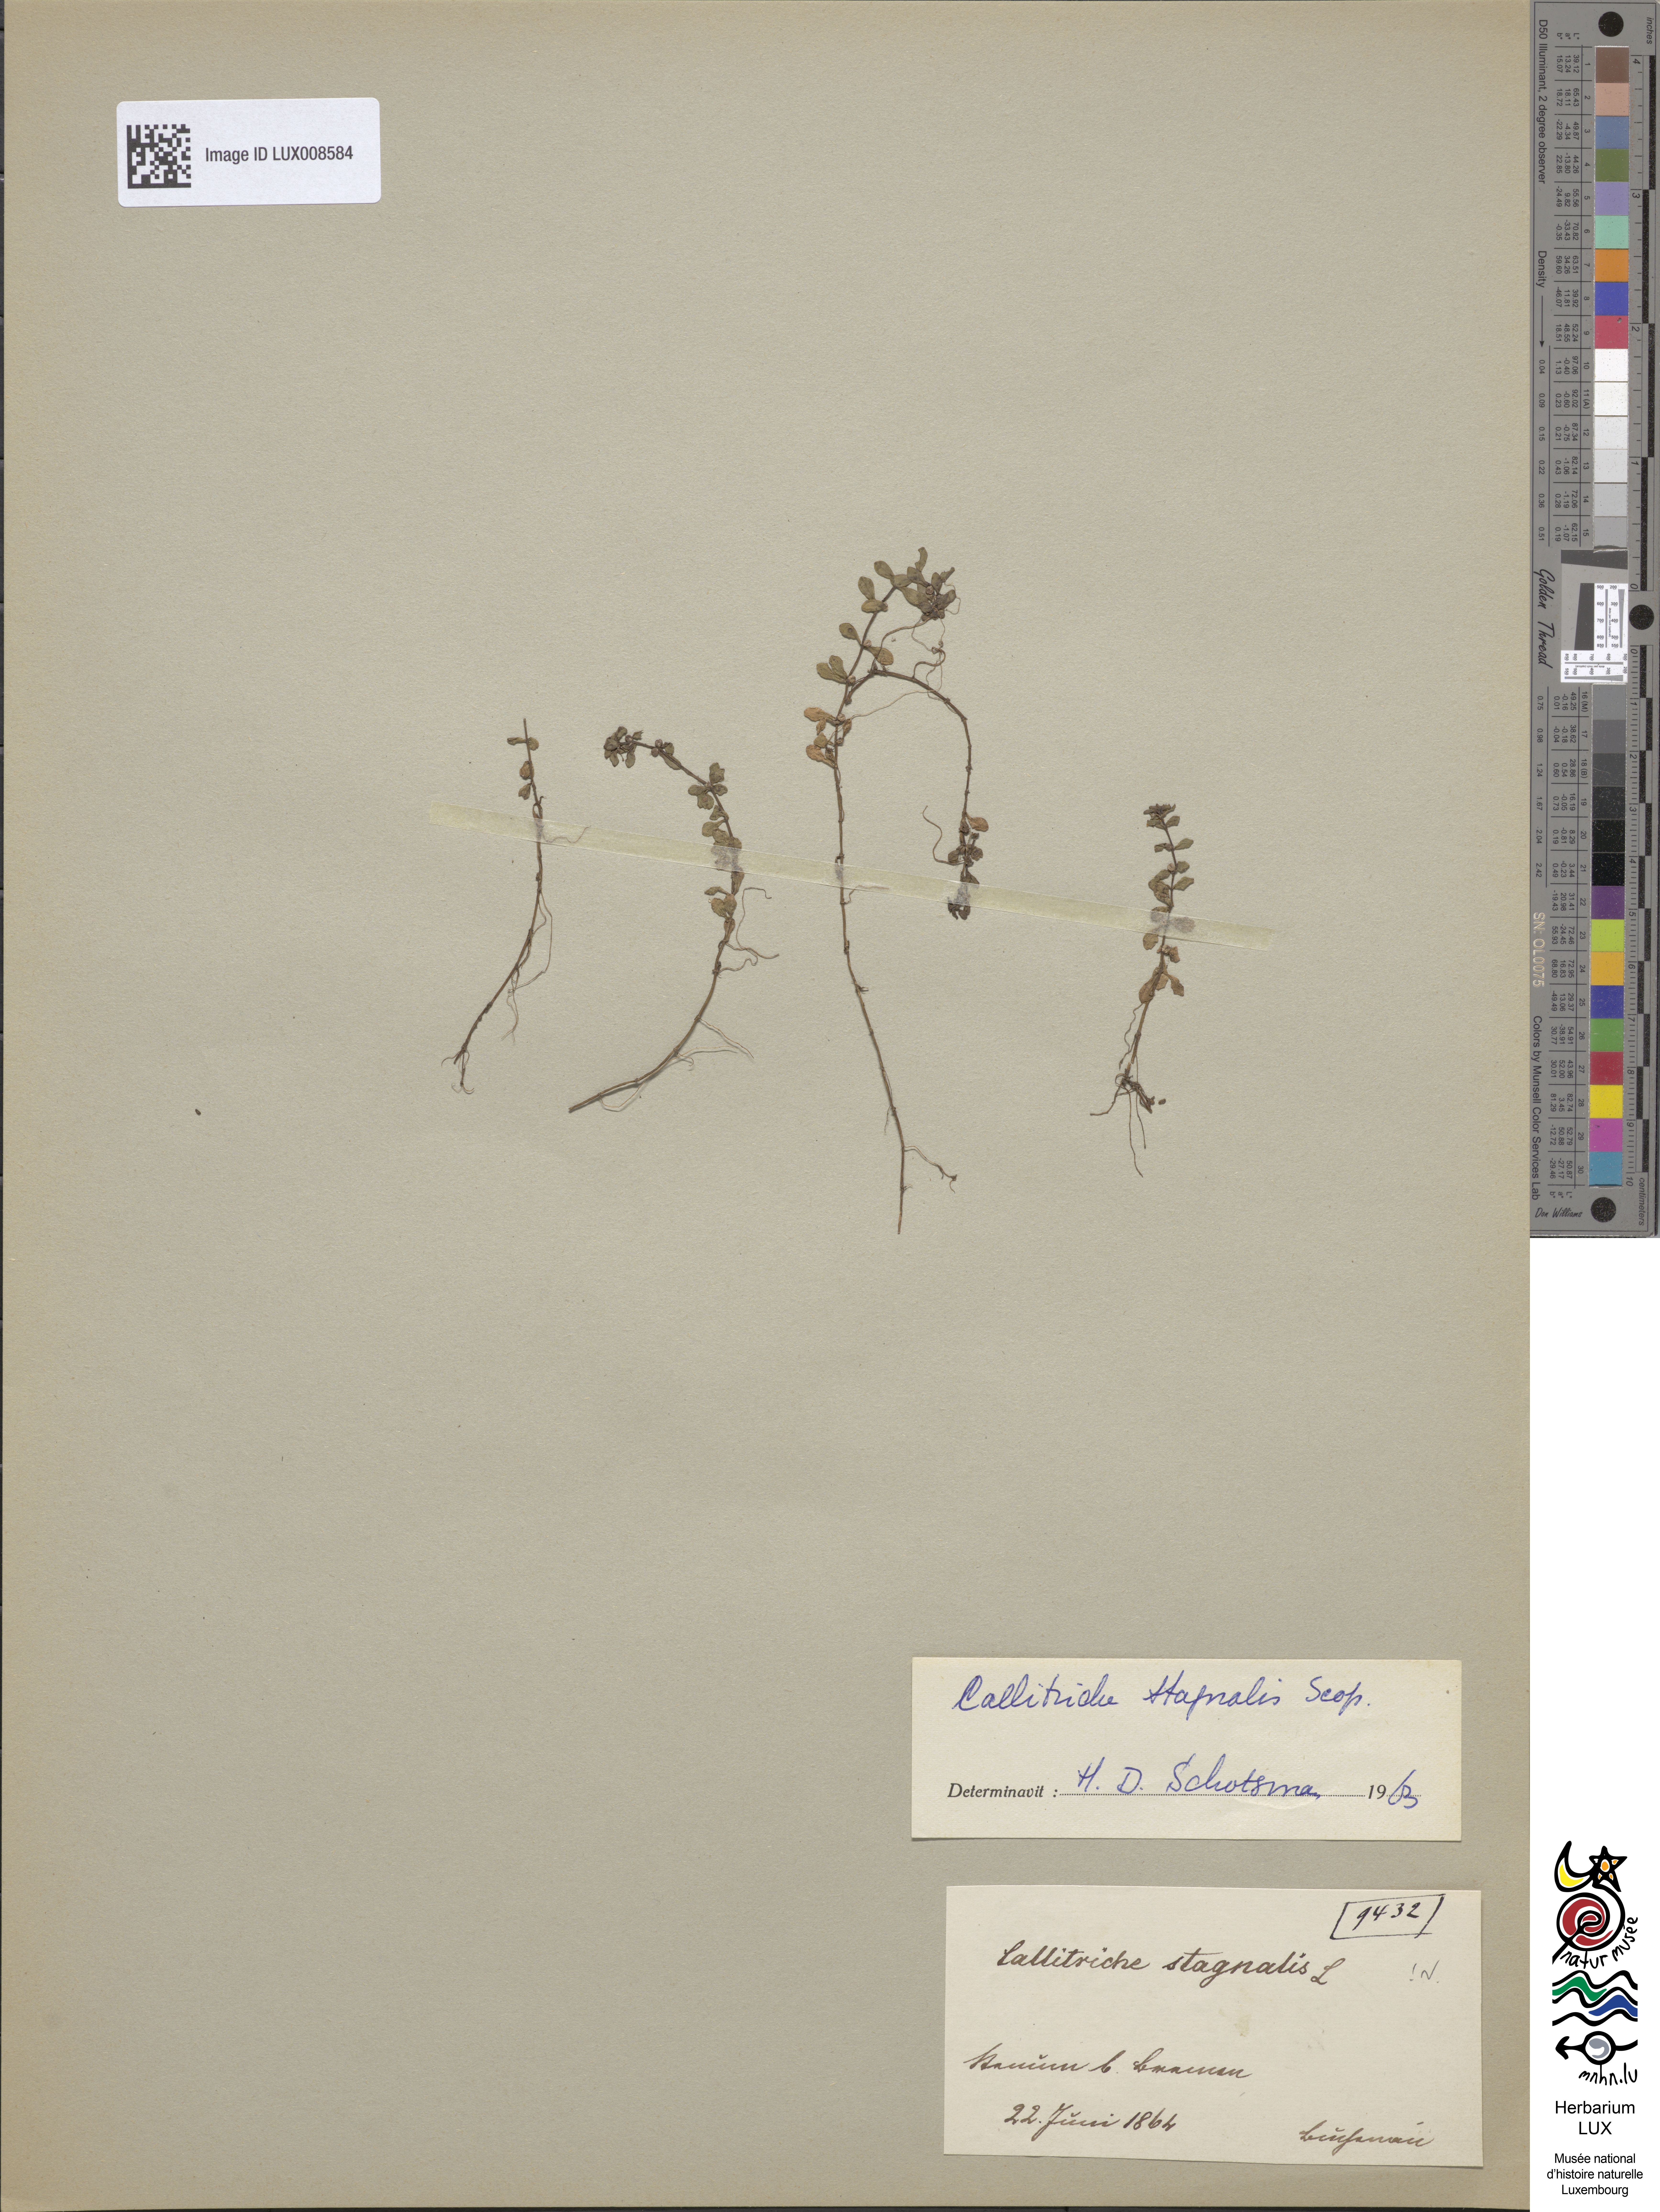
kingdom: Plantae
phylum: Tracheophyta
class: Magnoliopsida
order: Lamiales
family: Plantaginaceae
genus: Callitriche
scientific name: Callitriche stagnalis
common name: Common water-starwort
